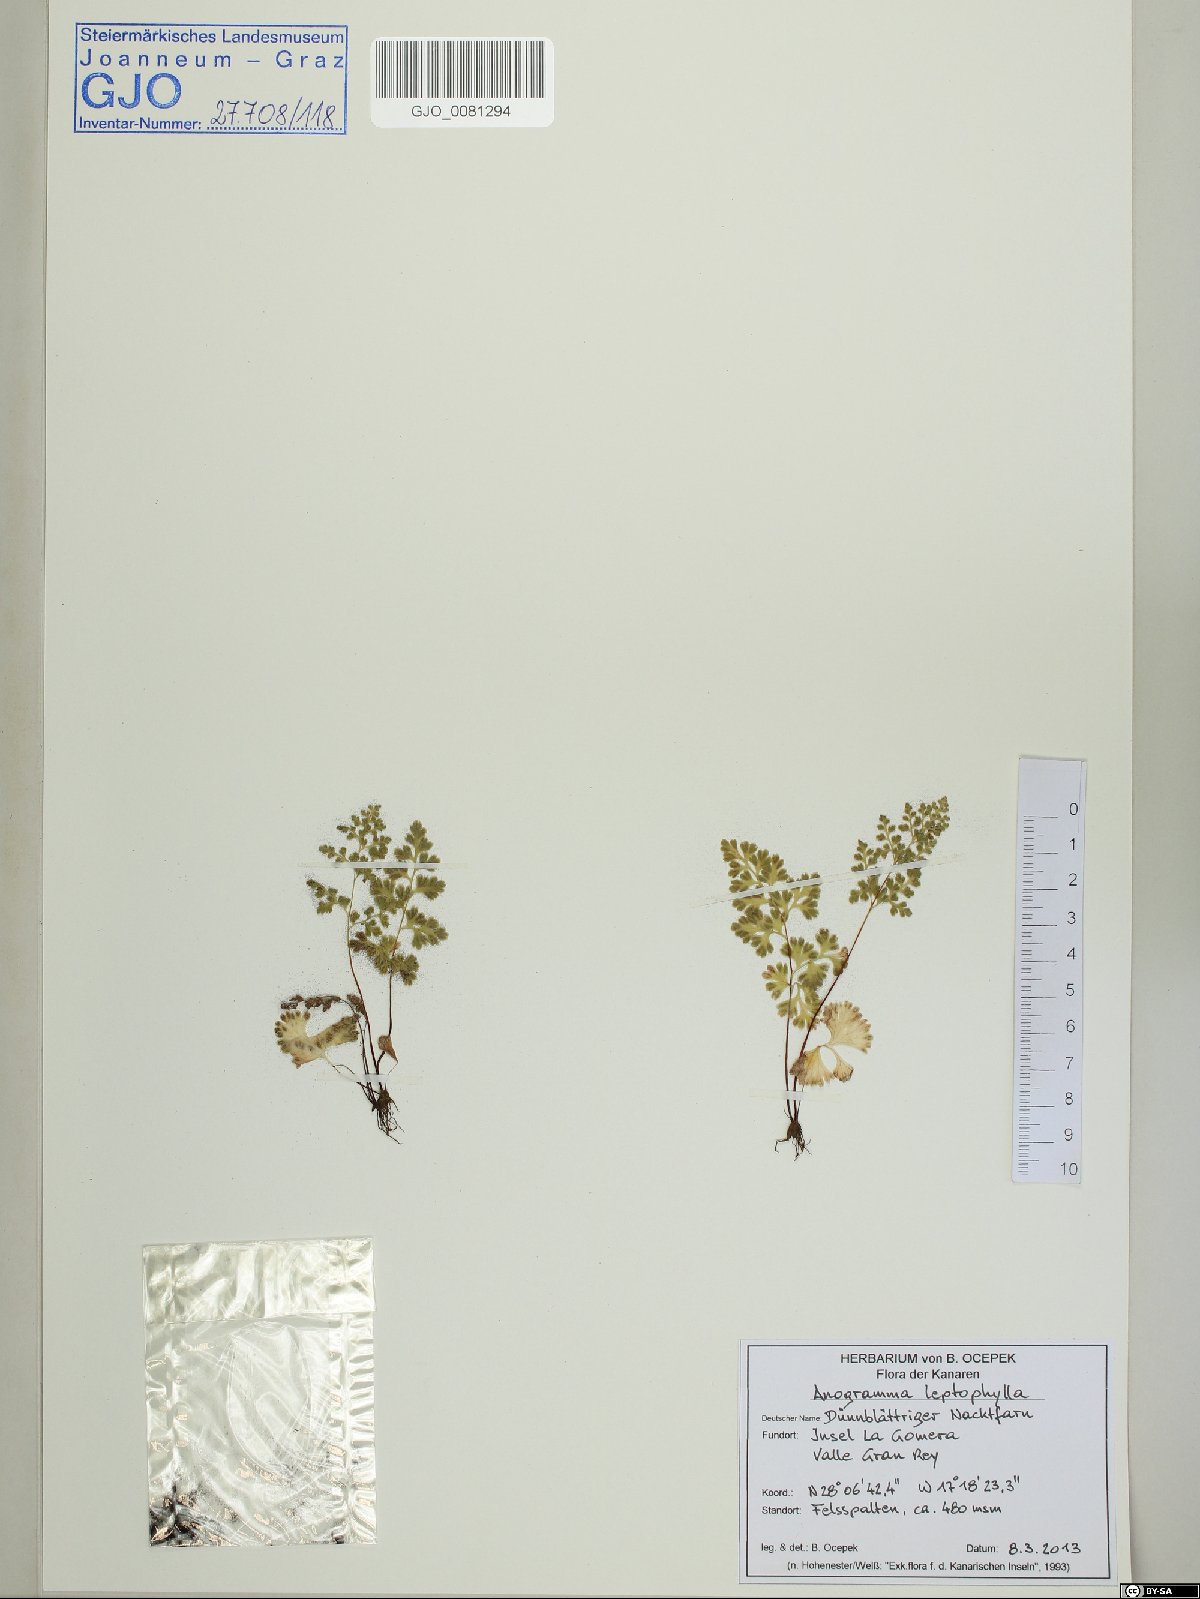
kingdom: Plantae
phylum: Tracheophyta
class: Polypodiopsida
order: Polypodiales
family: Pteridaceae
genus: Anogramma
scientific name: Anogramma leptophylla
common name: Jersey fern
